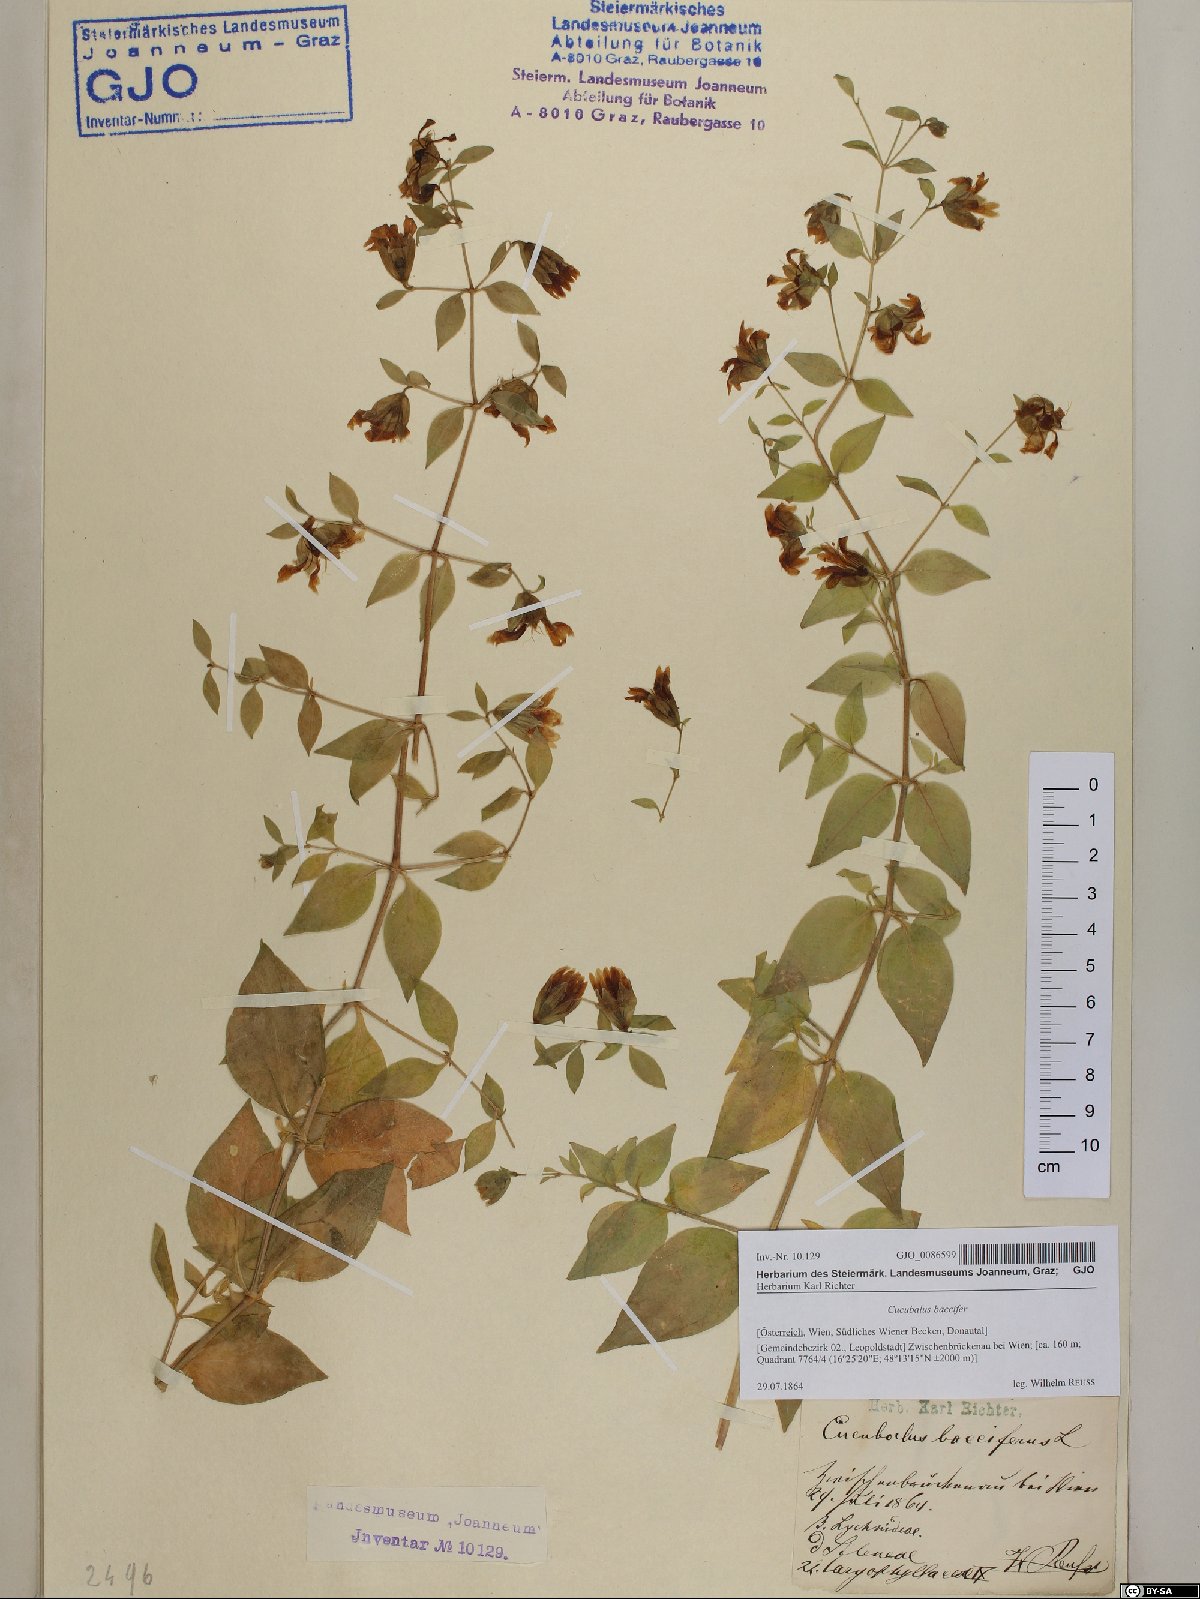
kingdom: Plantae
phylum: Tracheophyta
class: Magnoliopsida
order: Caryophyllales
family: Caryophyllaceae
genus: Silene
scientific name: Silene baccifera
